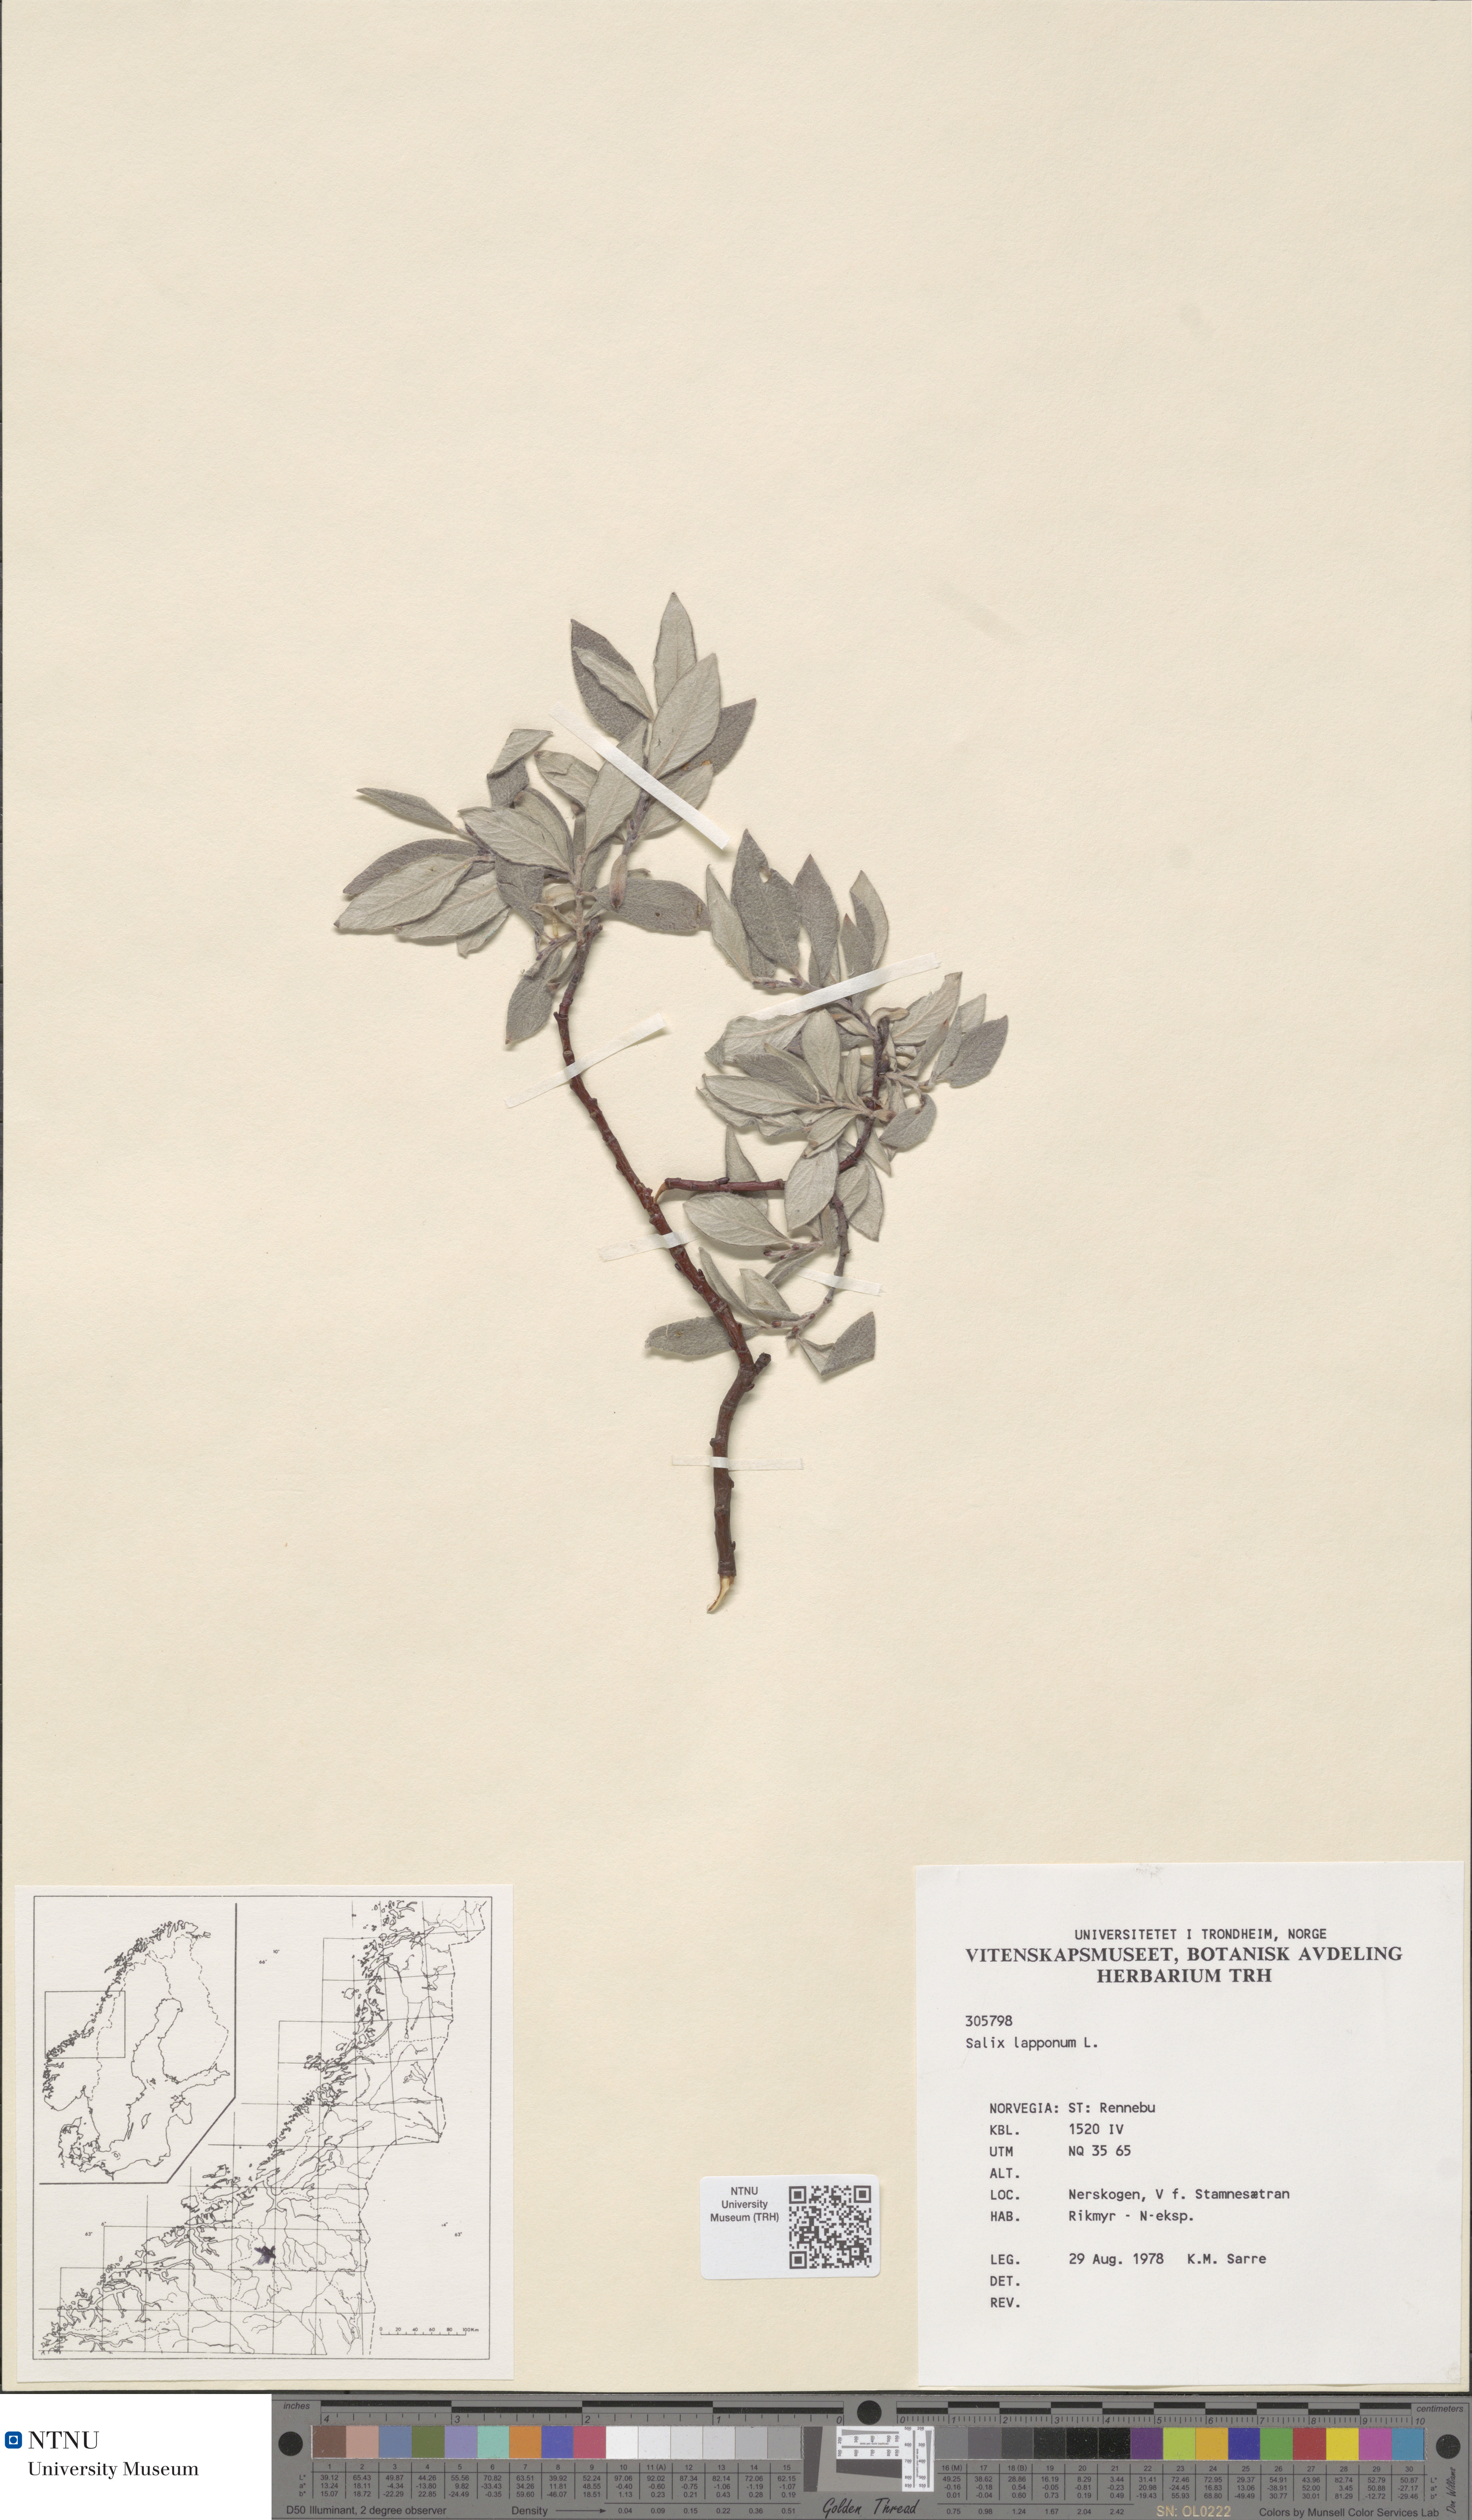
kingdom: Plantae
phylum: Tracheophyta
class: Magnoliopsida
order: Malpighiales
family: Salicaceae
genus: Salix
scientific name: Salix lapponum
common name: Downy willow
